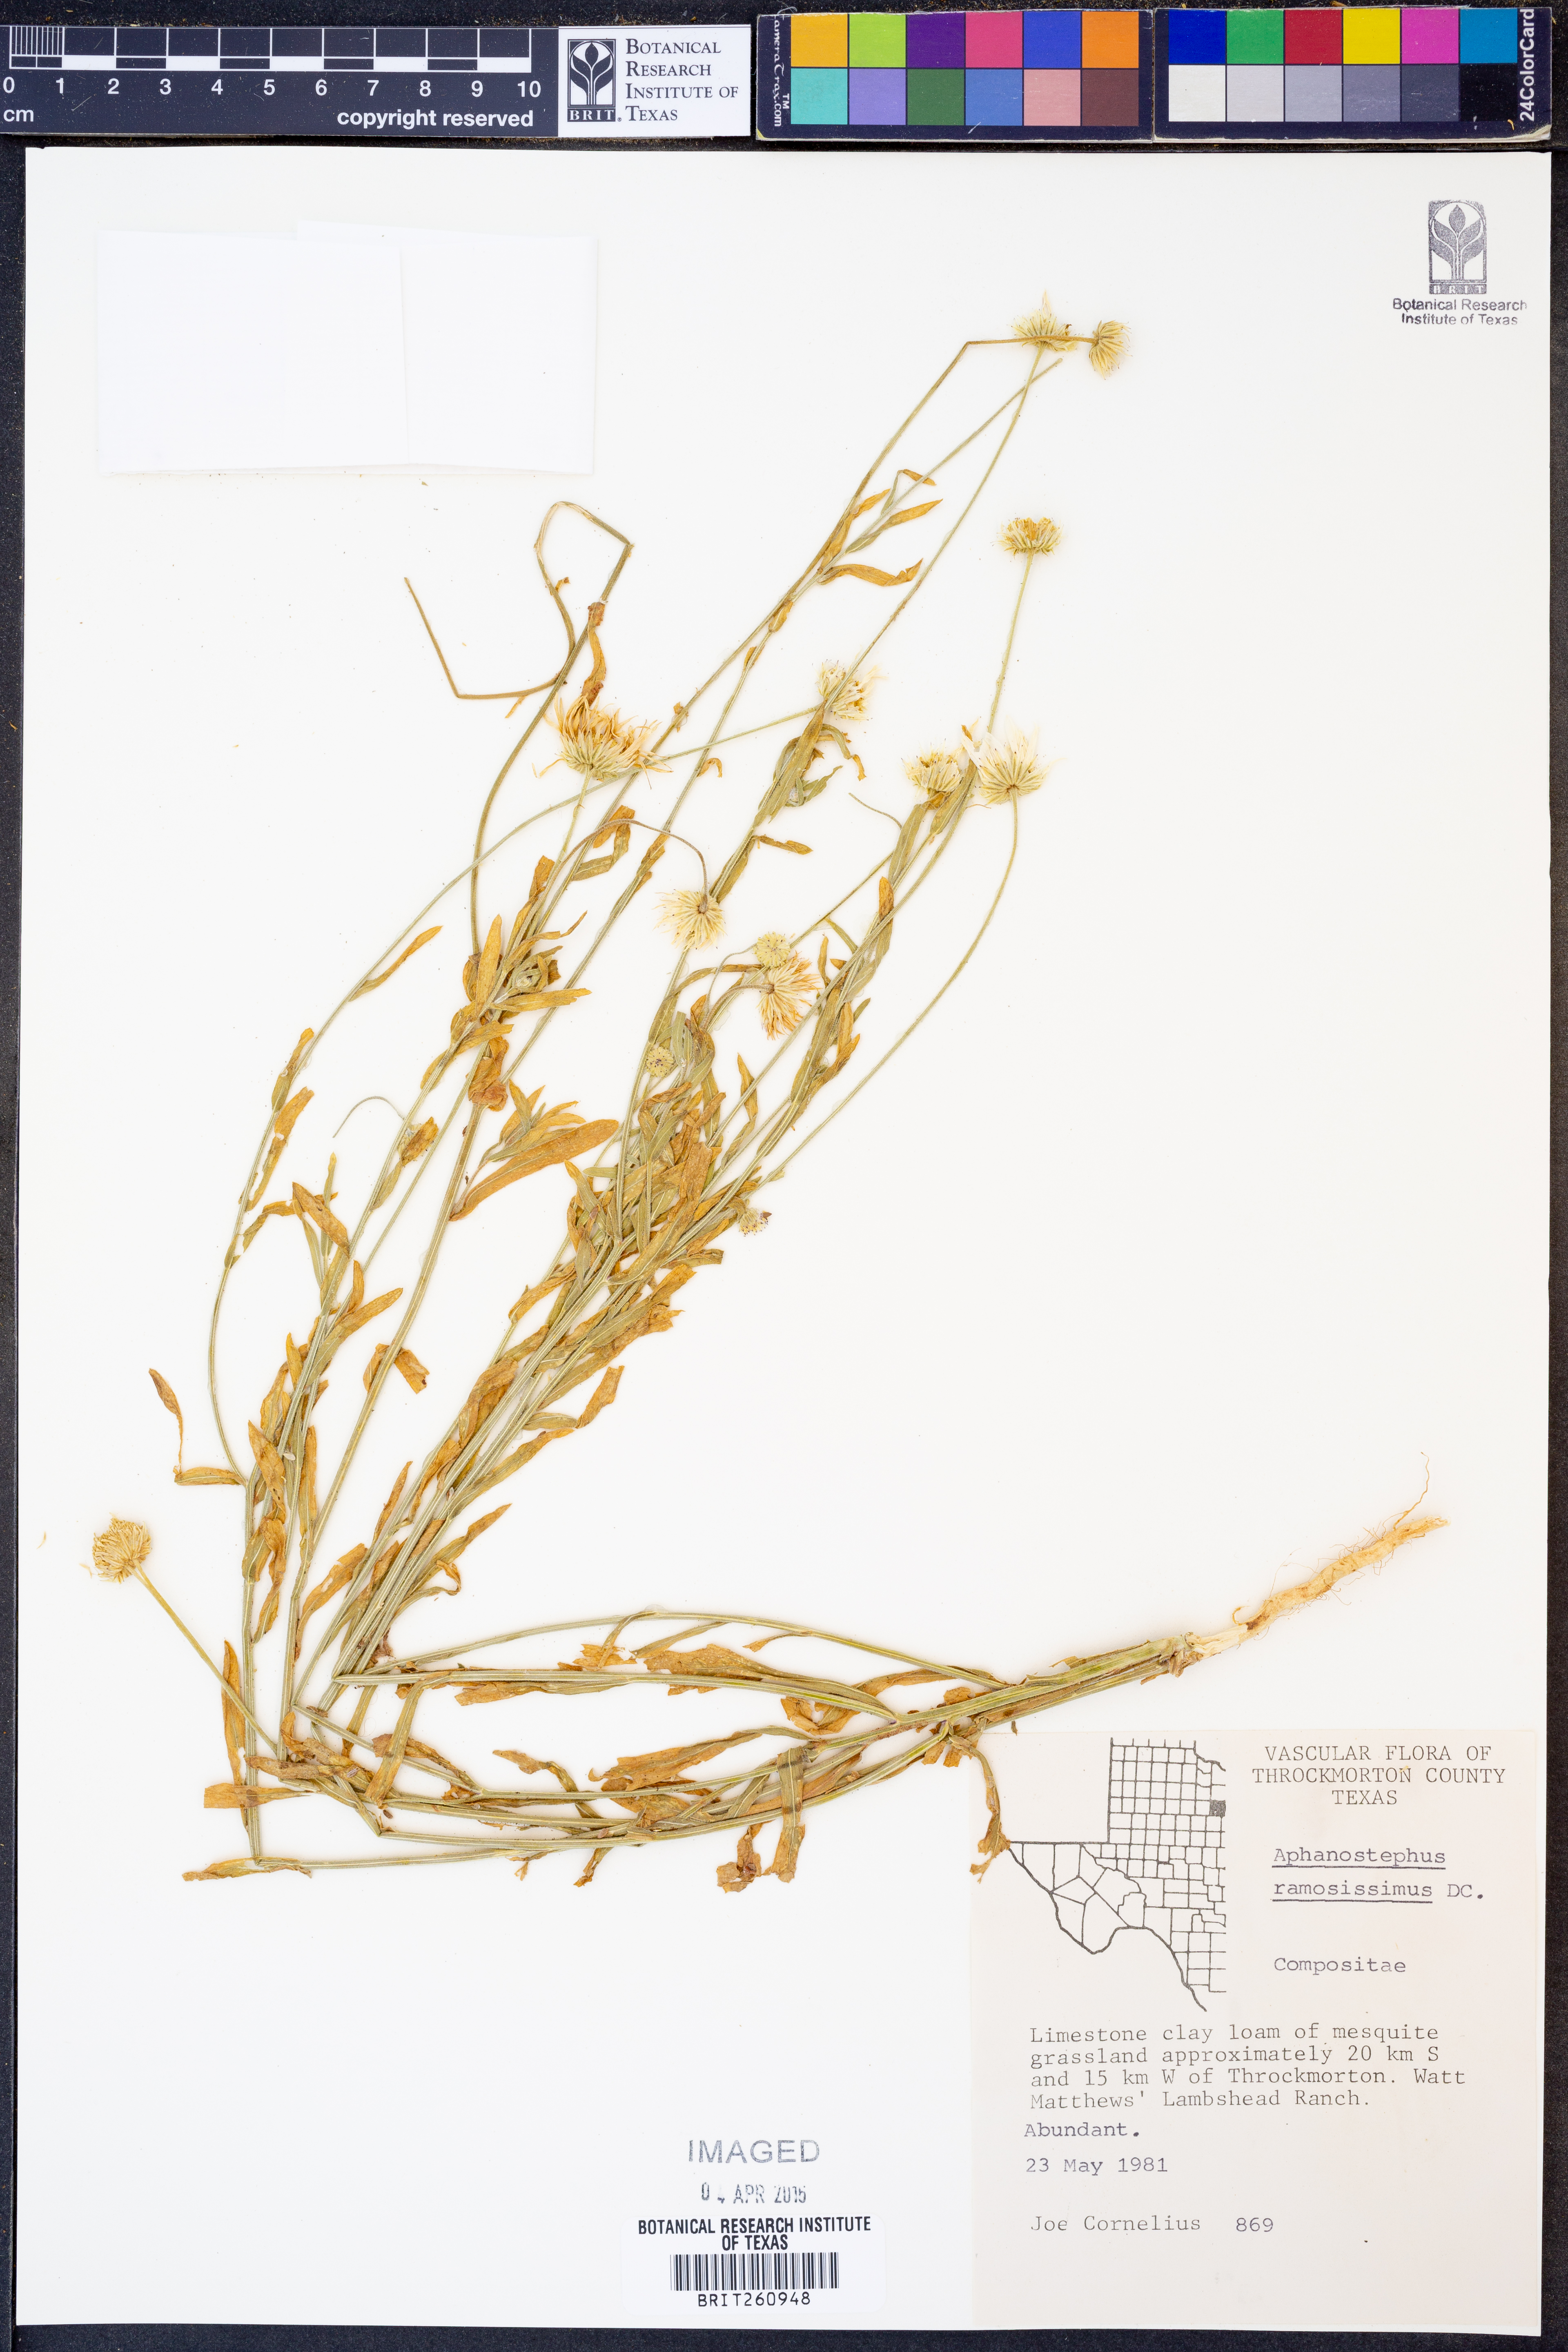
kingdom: Plantae
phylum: Tracheophyta
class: Magnoliopsida
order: Asterales
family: Asteraceae
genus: Aphanostephus
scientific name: Aphanostephus ramosissimus
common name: Plains lazy daisy
